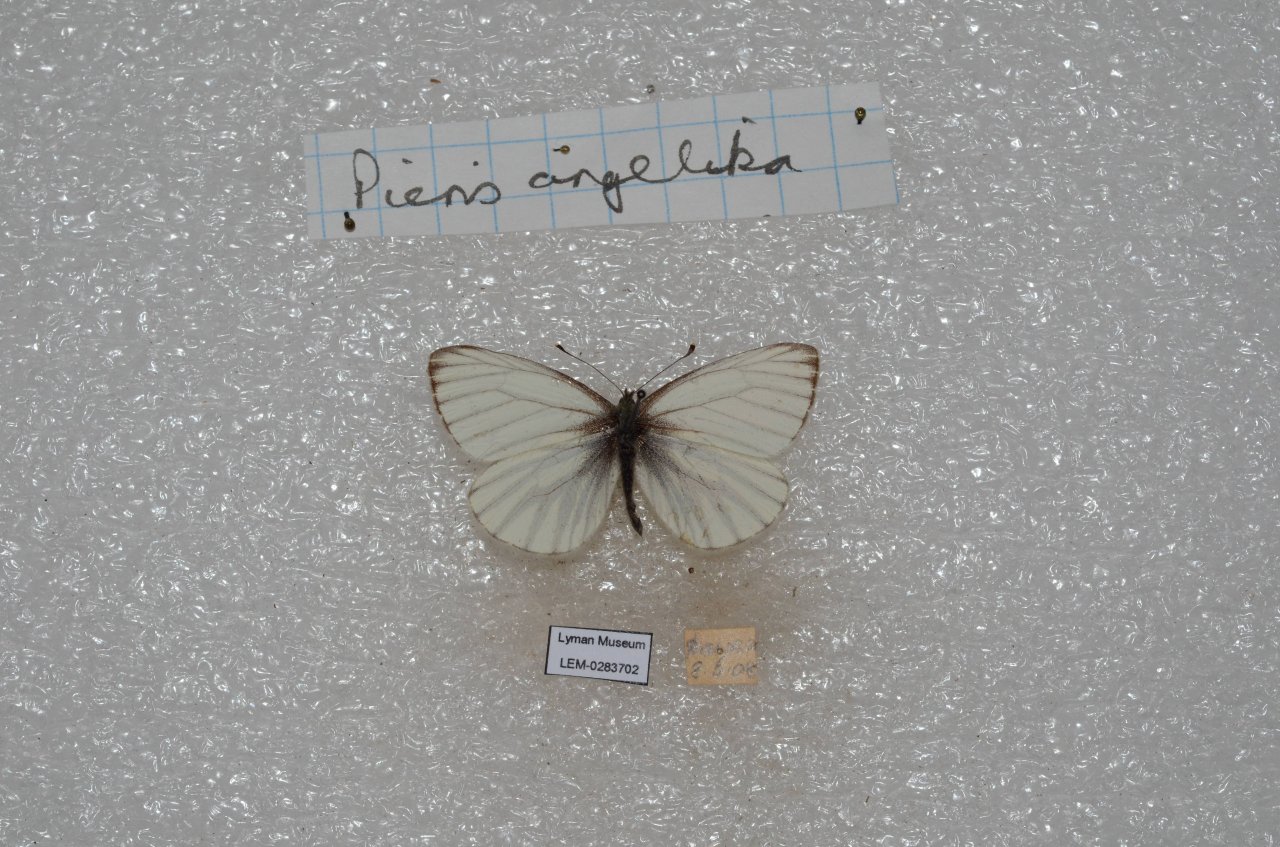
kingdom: Animalia
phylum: Arthropoda
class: Insecta
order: Lepidoptera
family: Pieridae
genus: Pieris
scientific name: Pieris angelika
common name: Arctic White
